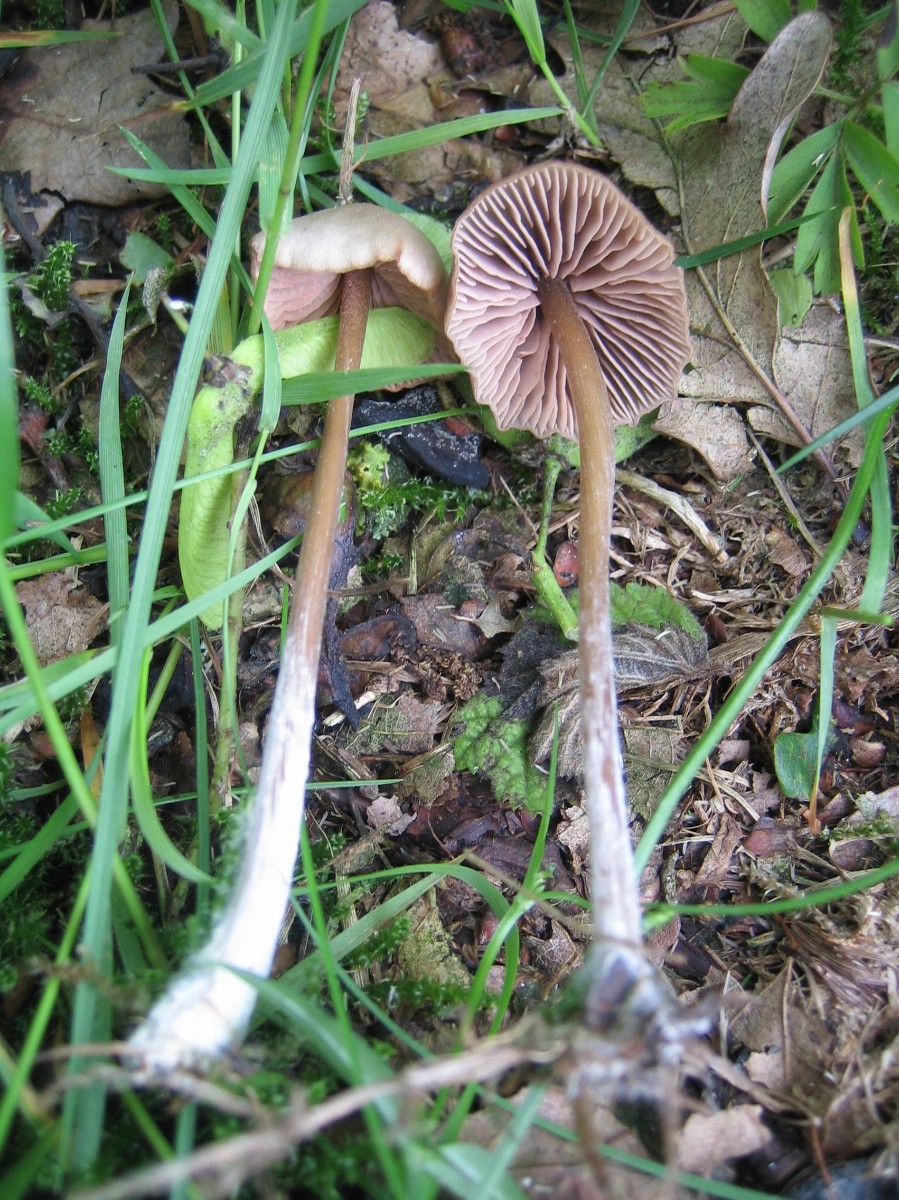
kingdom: Fungi
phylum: Basidiomycota
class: Agaricomycetes
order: Agaricales
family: Entolomataceae
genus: Entoloma
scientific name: Entoloma
